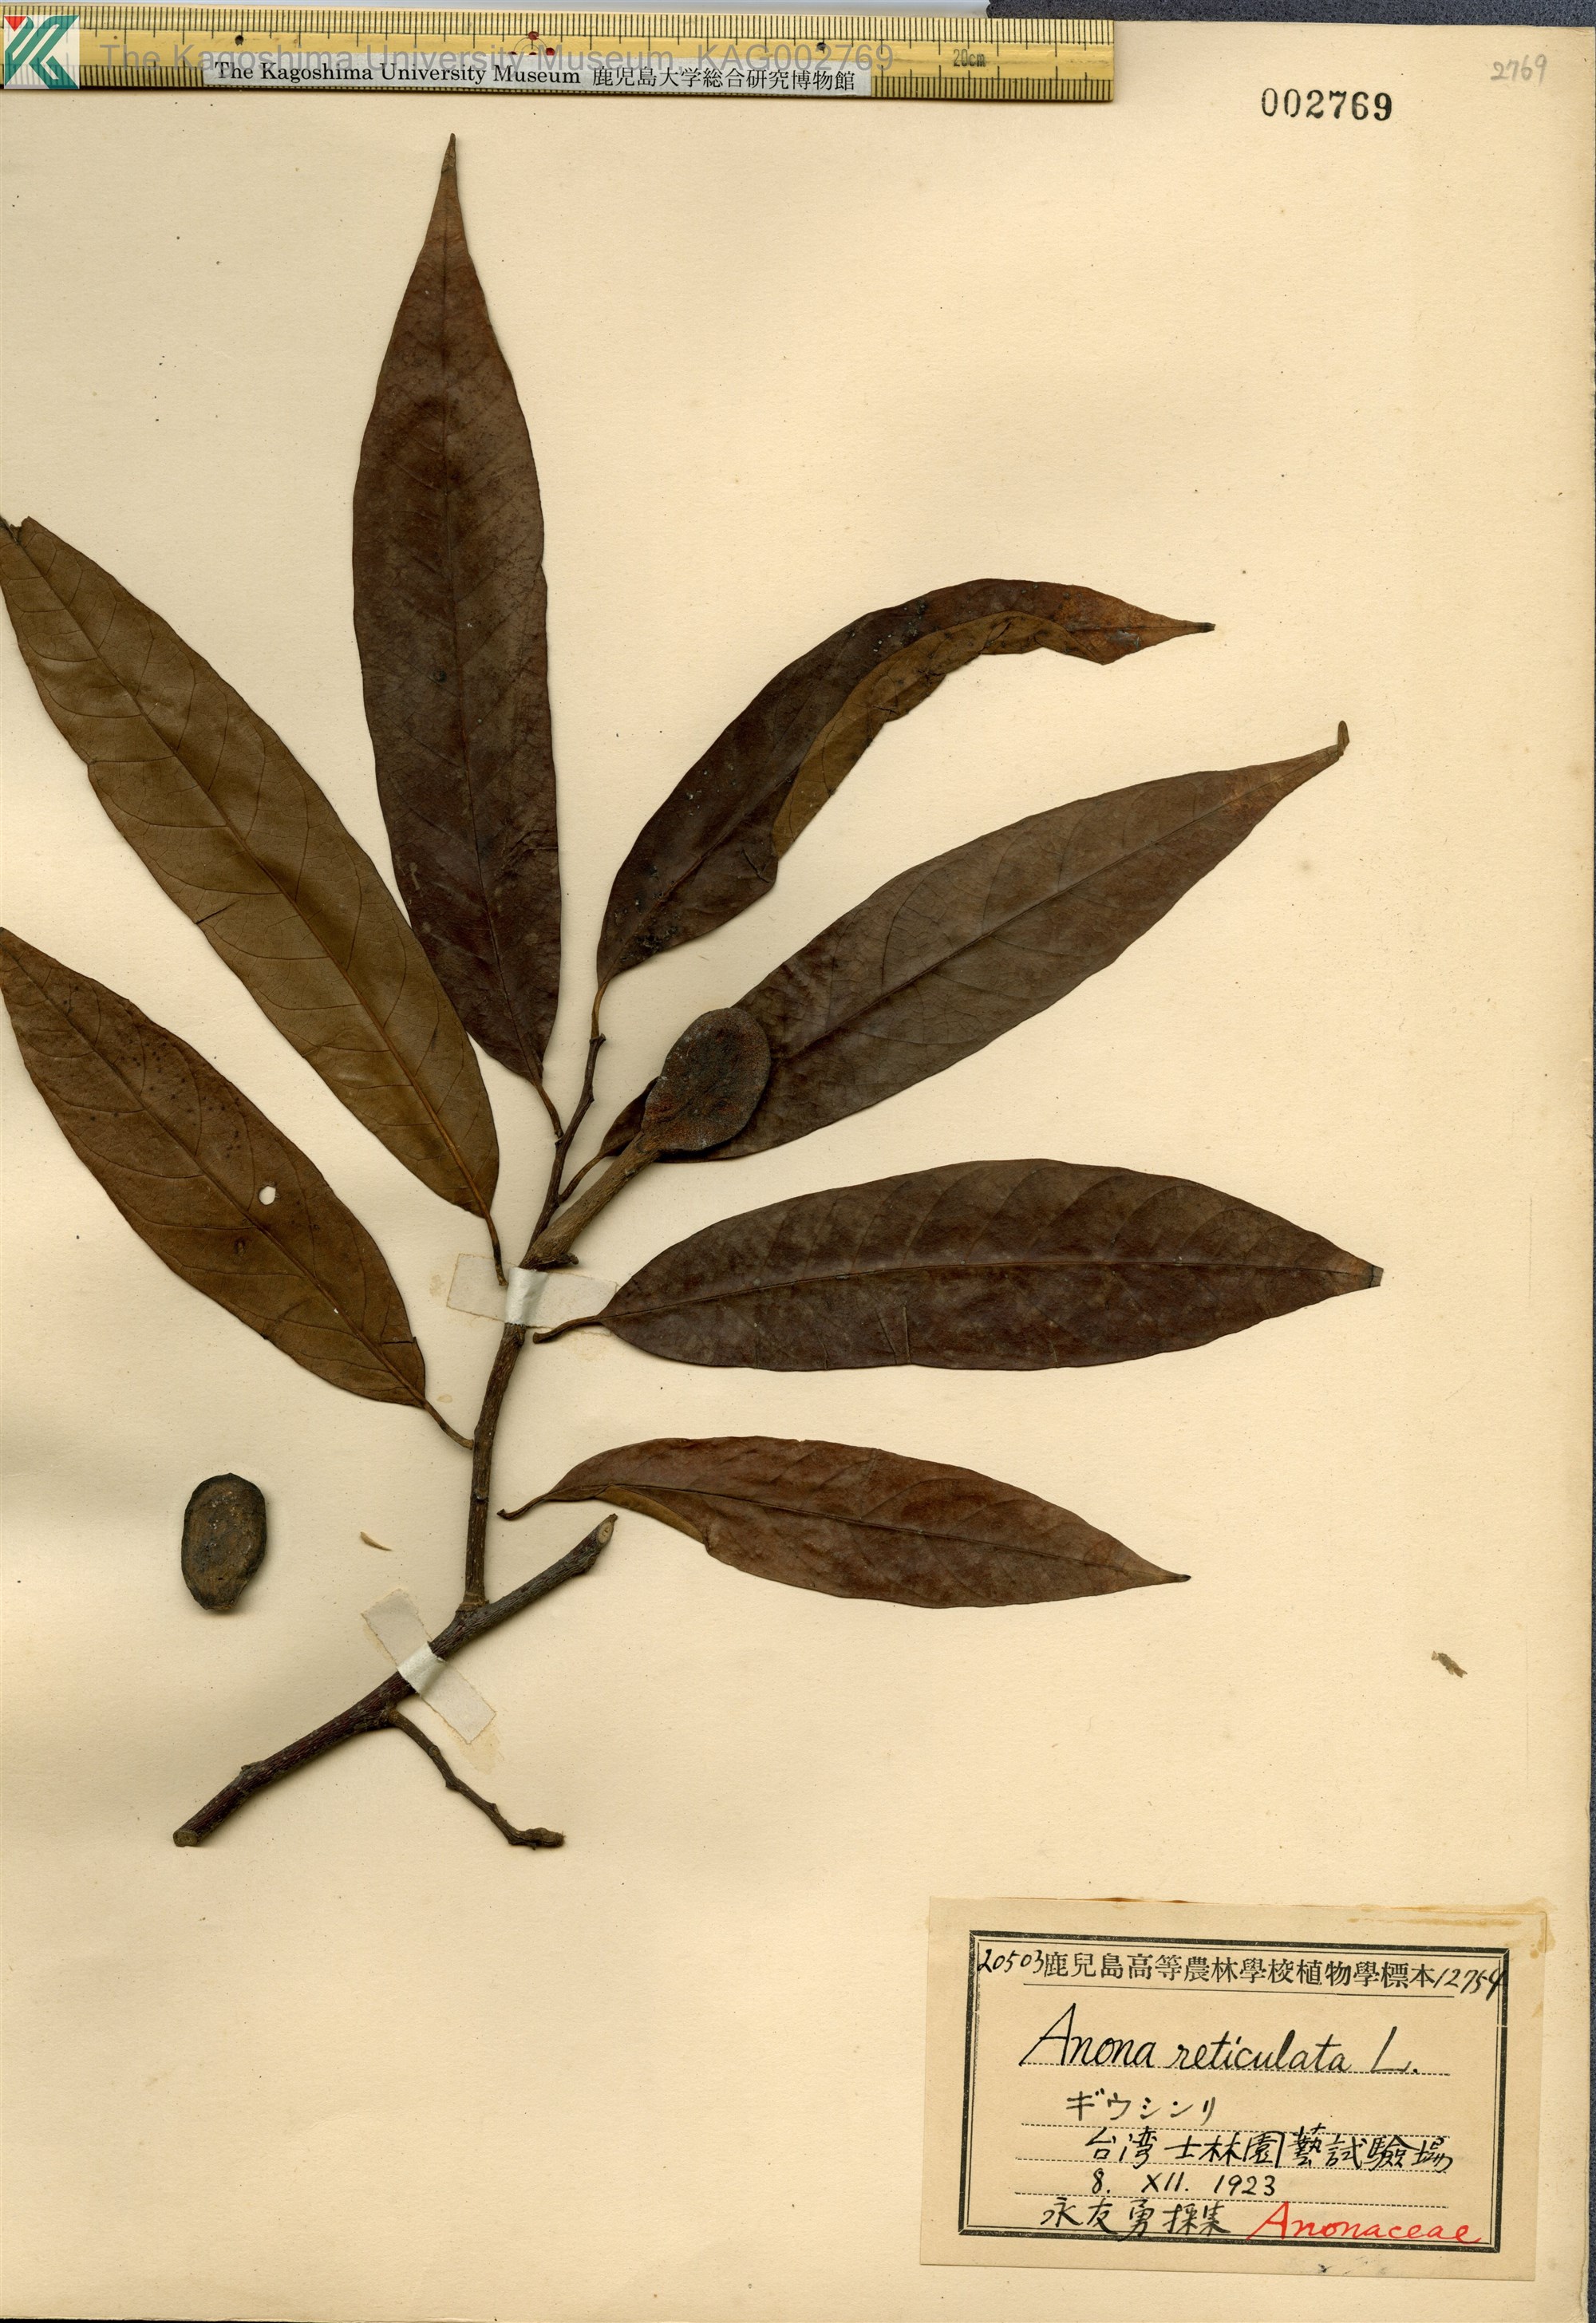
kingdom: Plantae
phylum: Tracheophyta
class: Magnoliopsida
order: Magnoliales
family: Annonaceae
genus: Annona
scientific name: Annona reticulata
